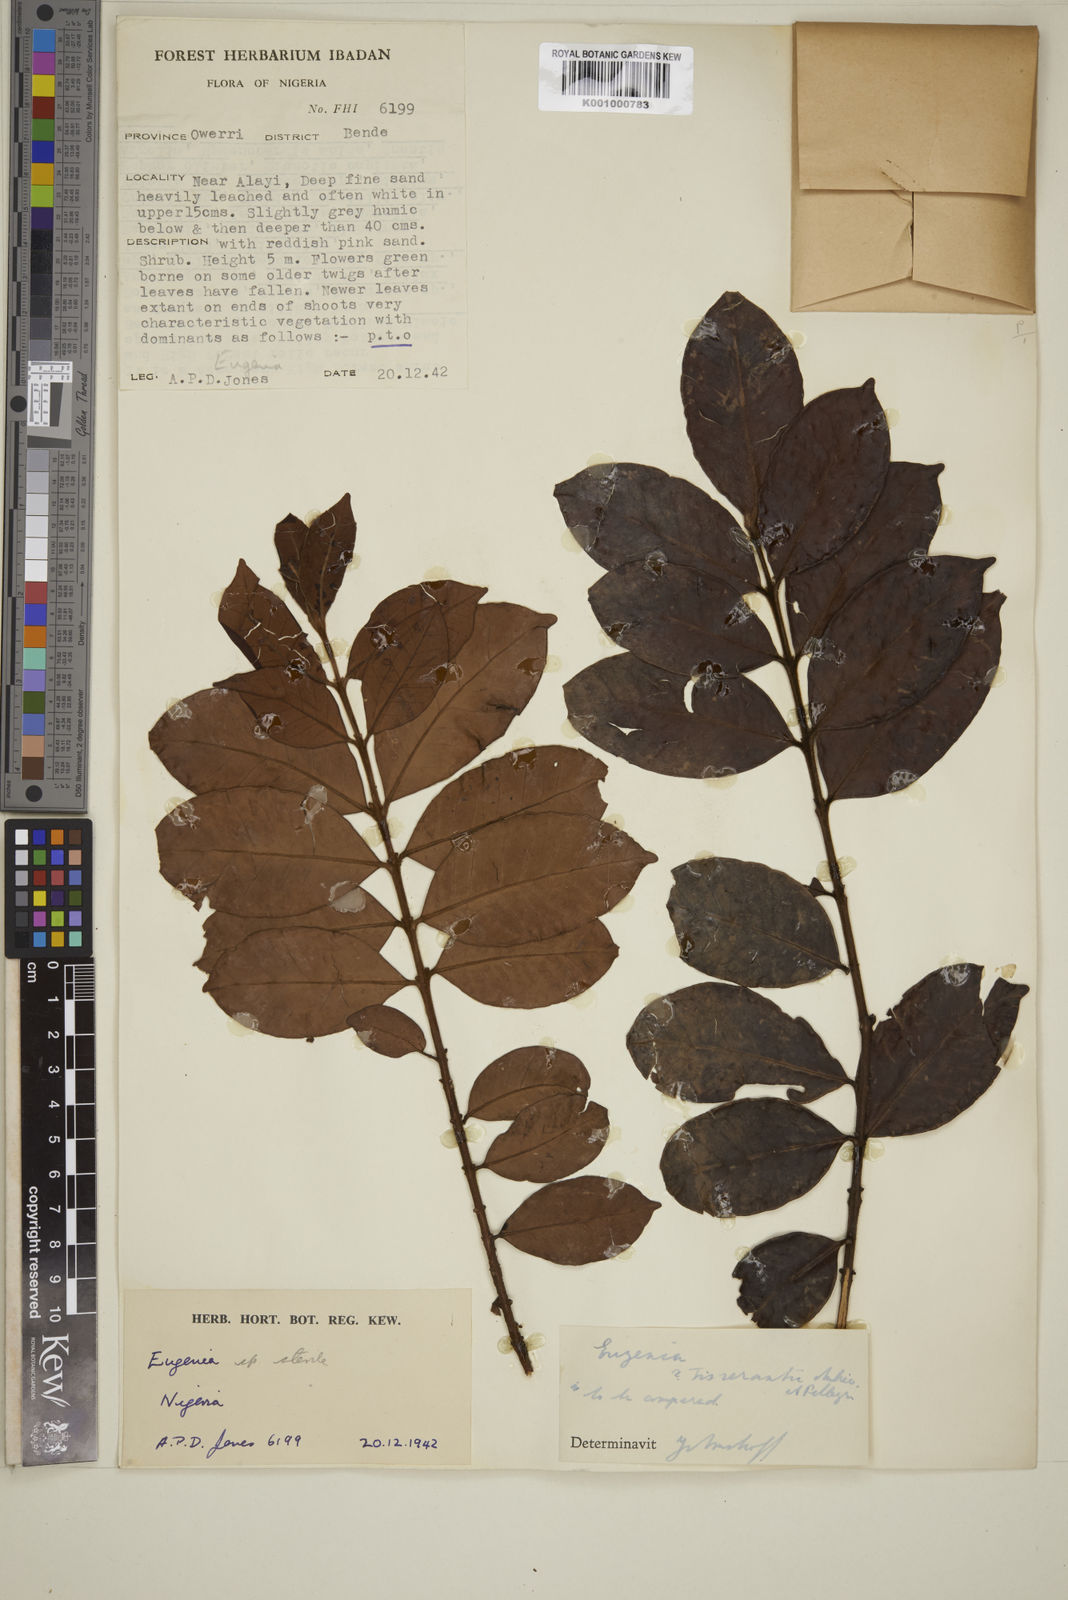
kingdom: Plantae
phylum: Tracheophyta
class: Magnoliopsida
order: Myrtales
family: Myrtaceae
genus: Eugenia
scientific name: Eugenia
